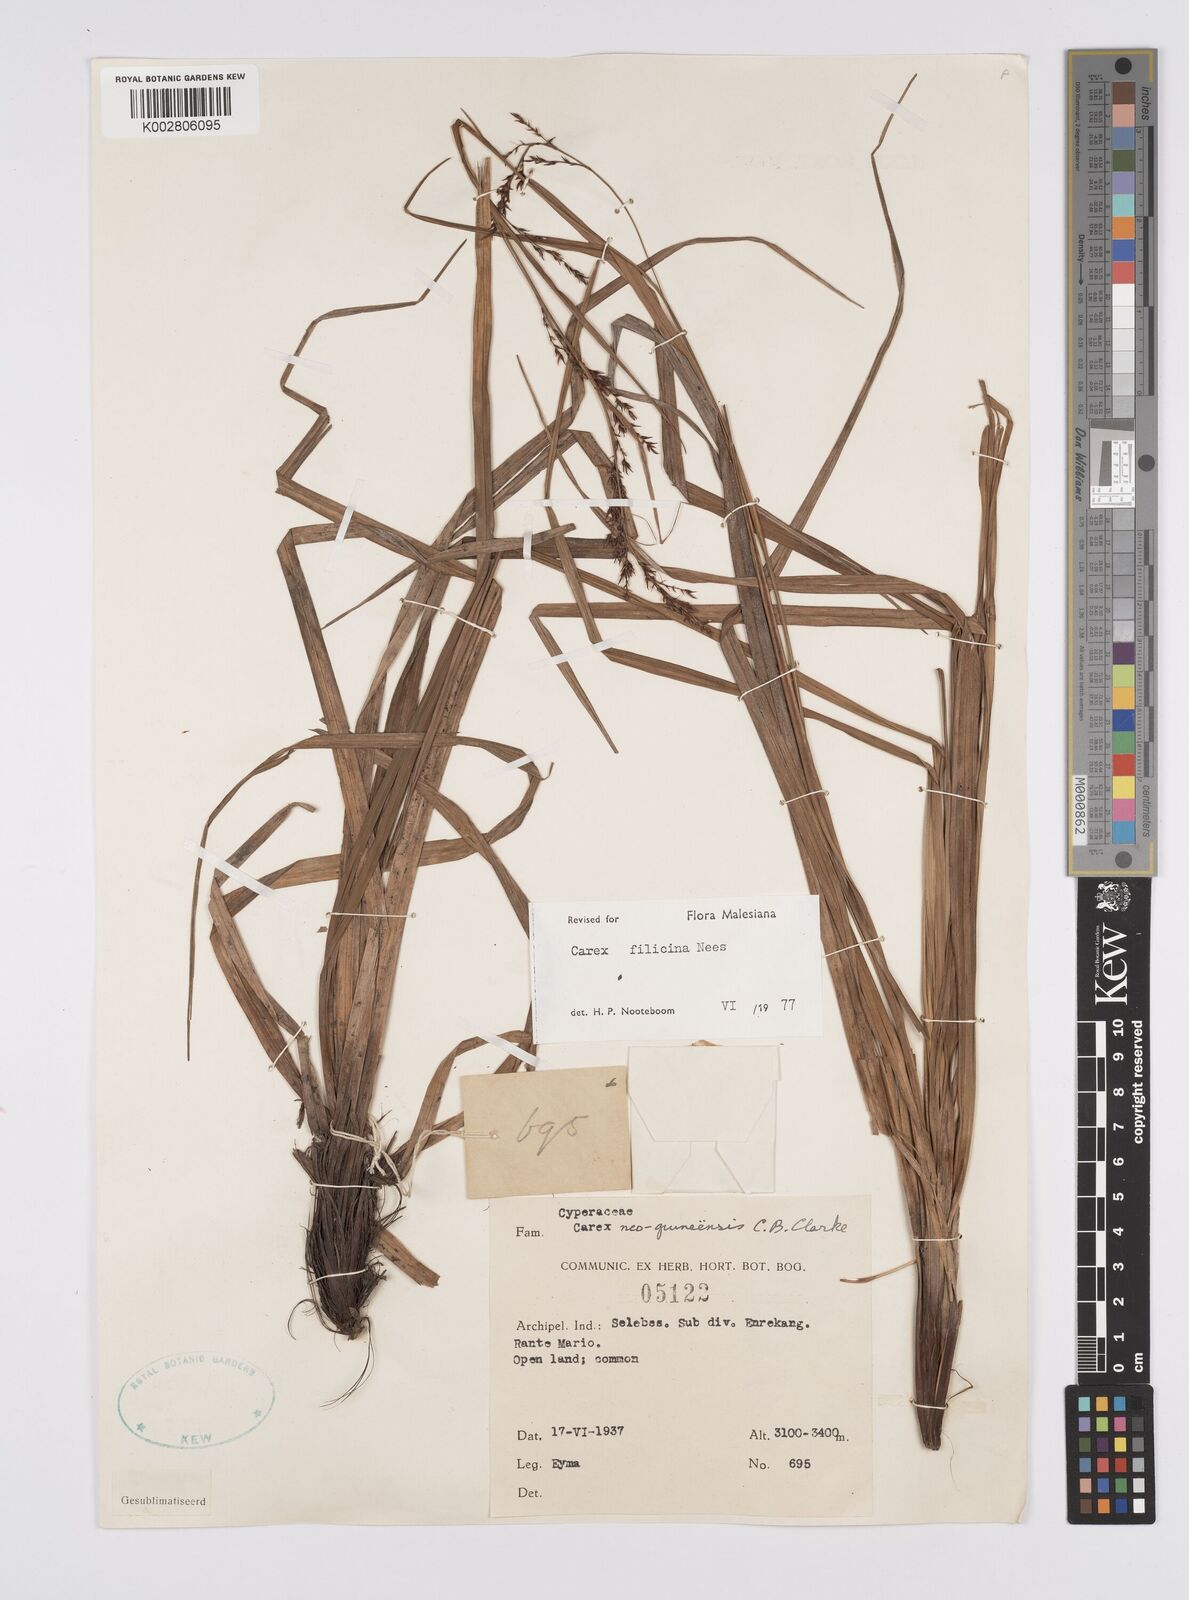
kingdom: Plantae
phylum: Tracheophyta
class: Liliopsida
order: Poales
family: Cyperaceae
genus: Carex
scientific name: Carex filicina
